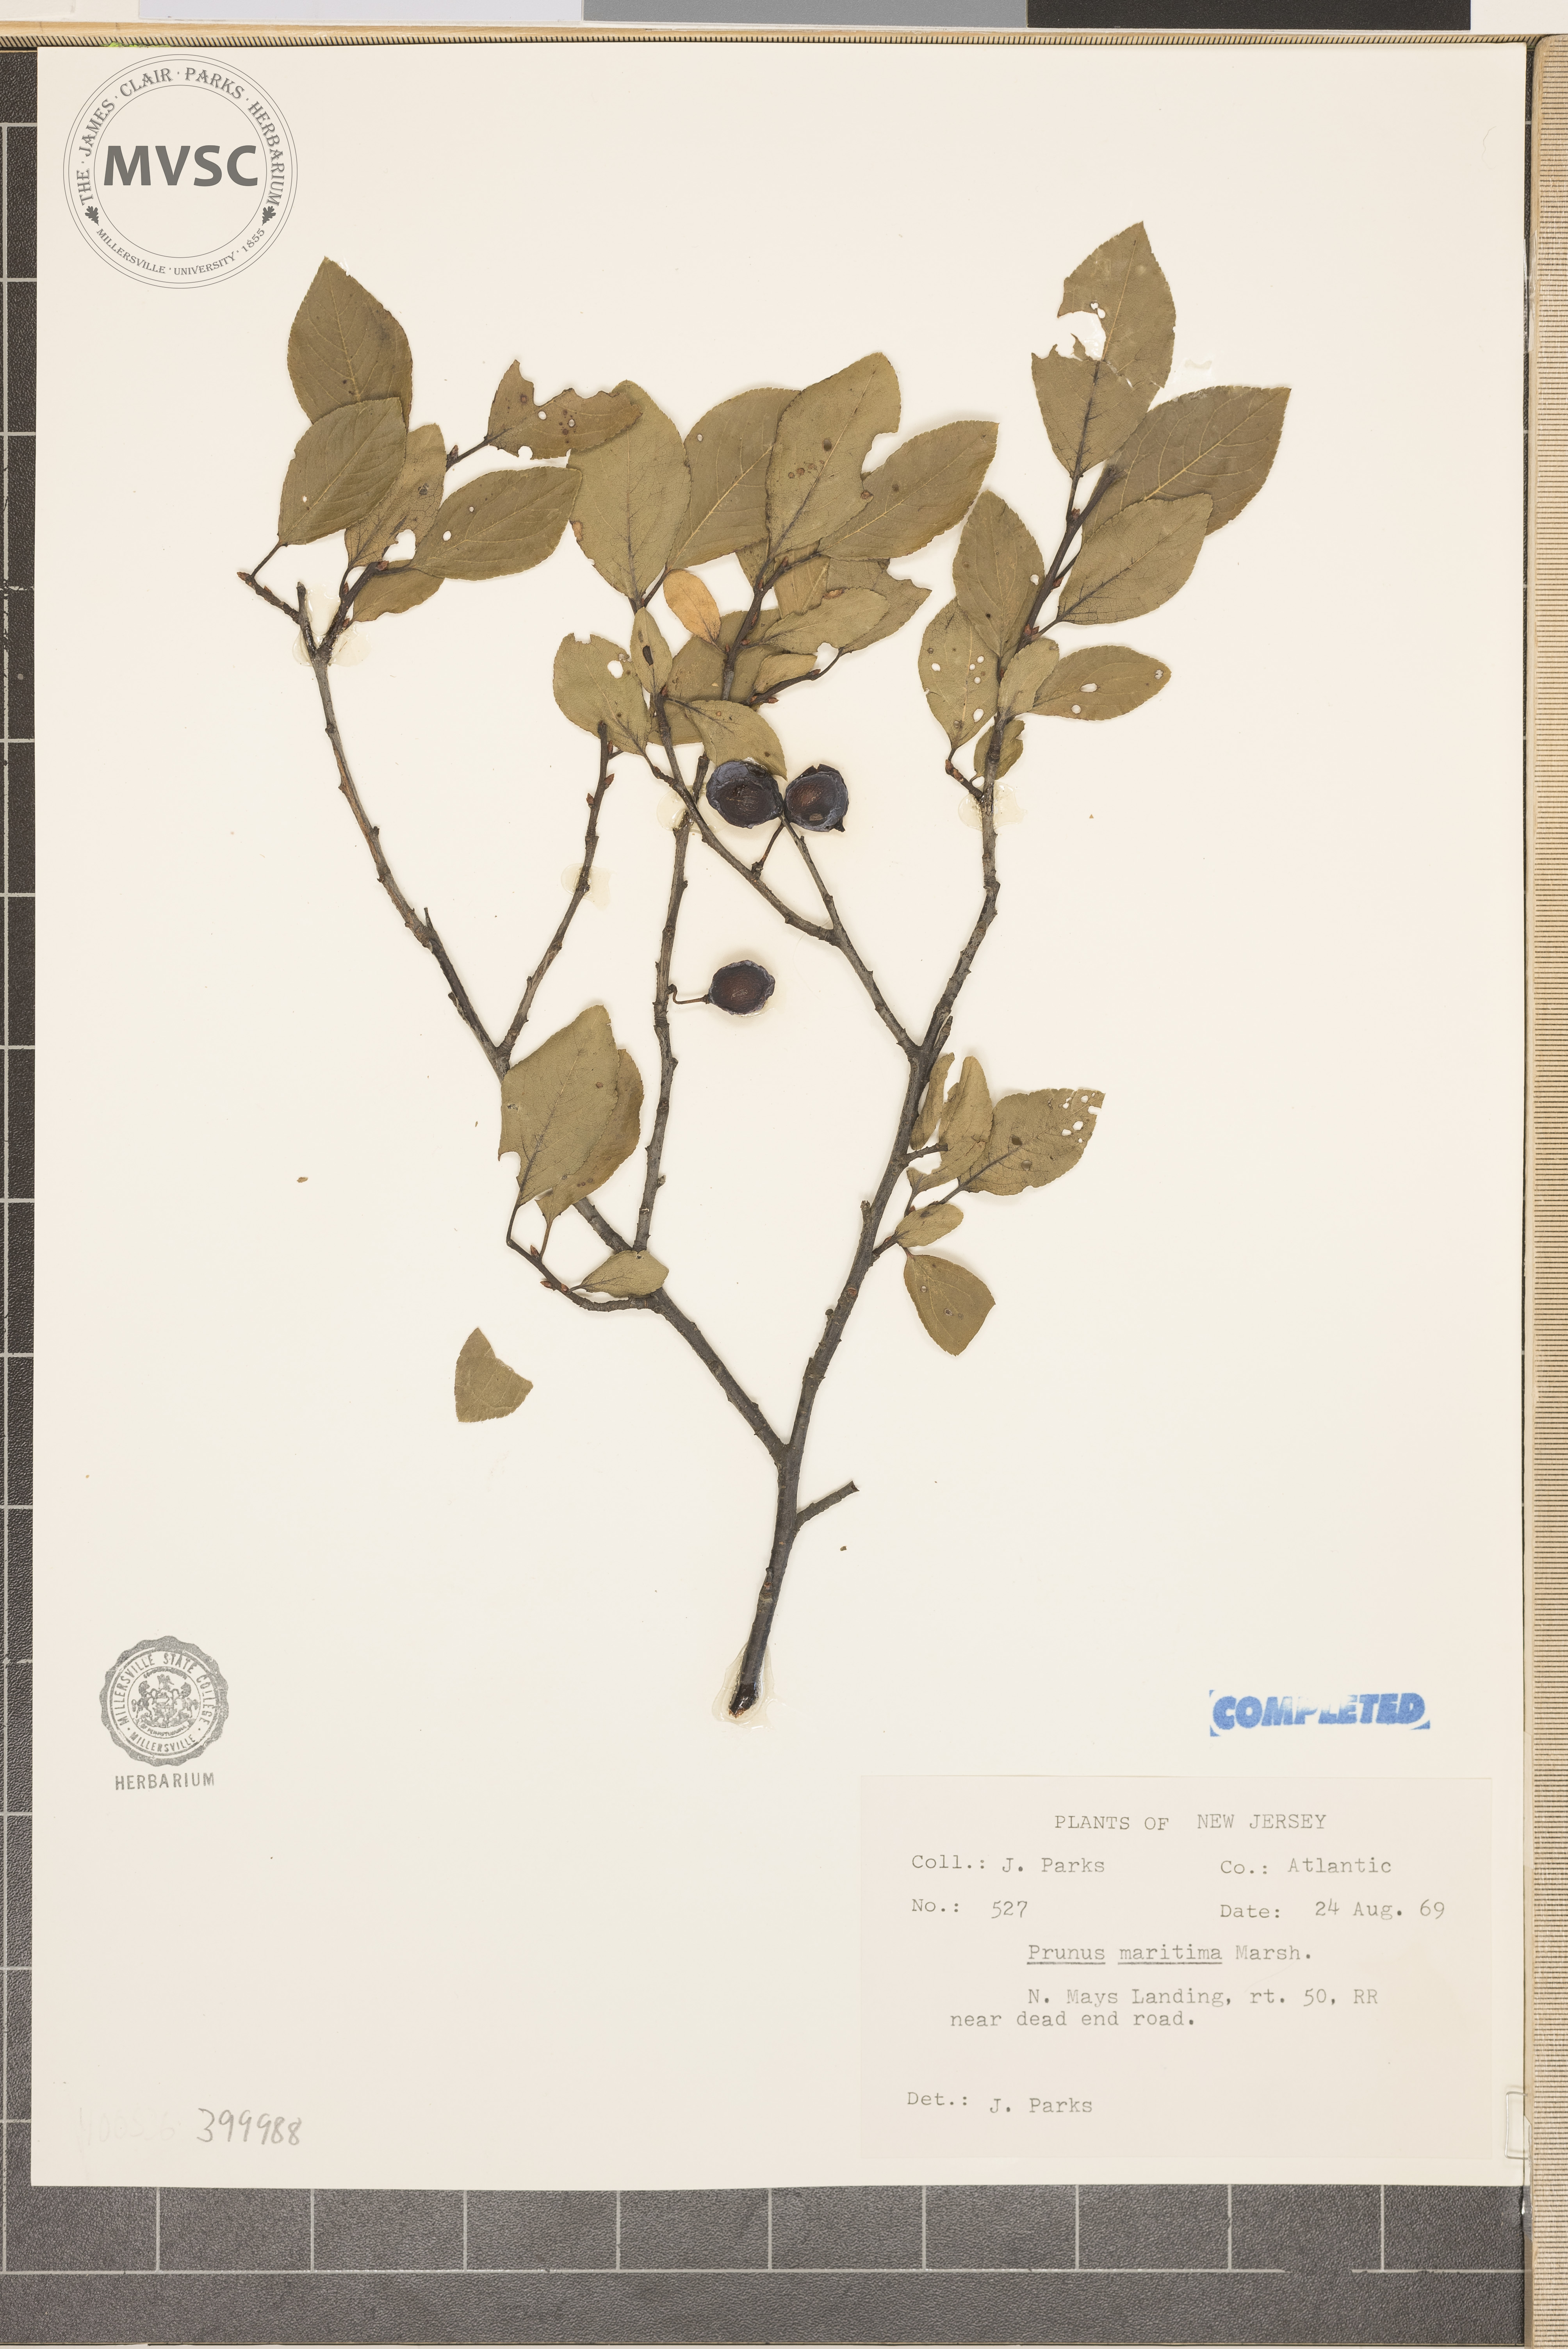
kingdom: Plantae
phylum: Tracheophyta
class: Magnoliopsida
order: Rosales
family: Rosaceae
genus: Prunus
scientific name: Prunus maritima
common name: Beach plum
